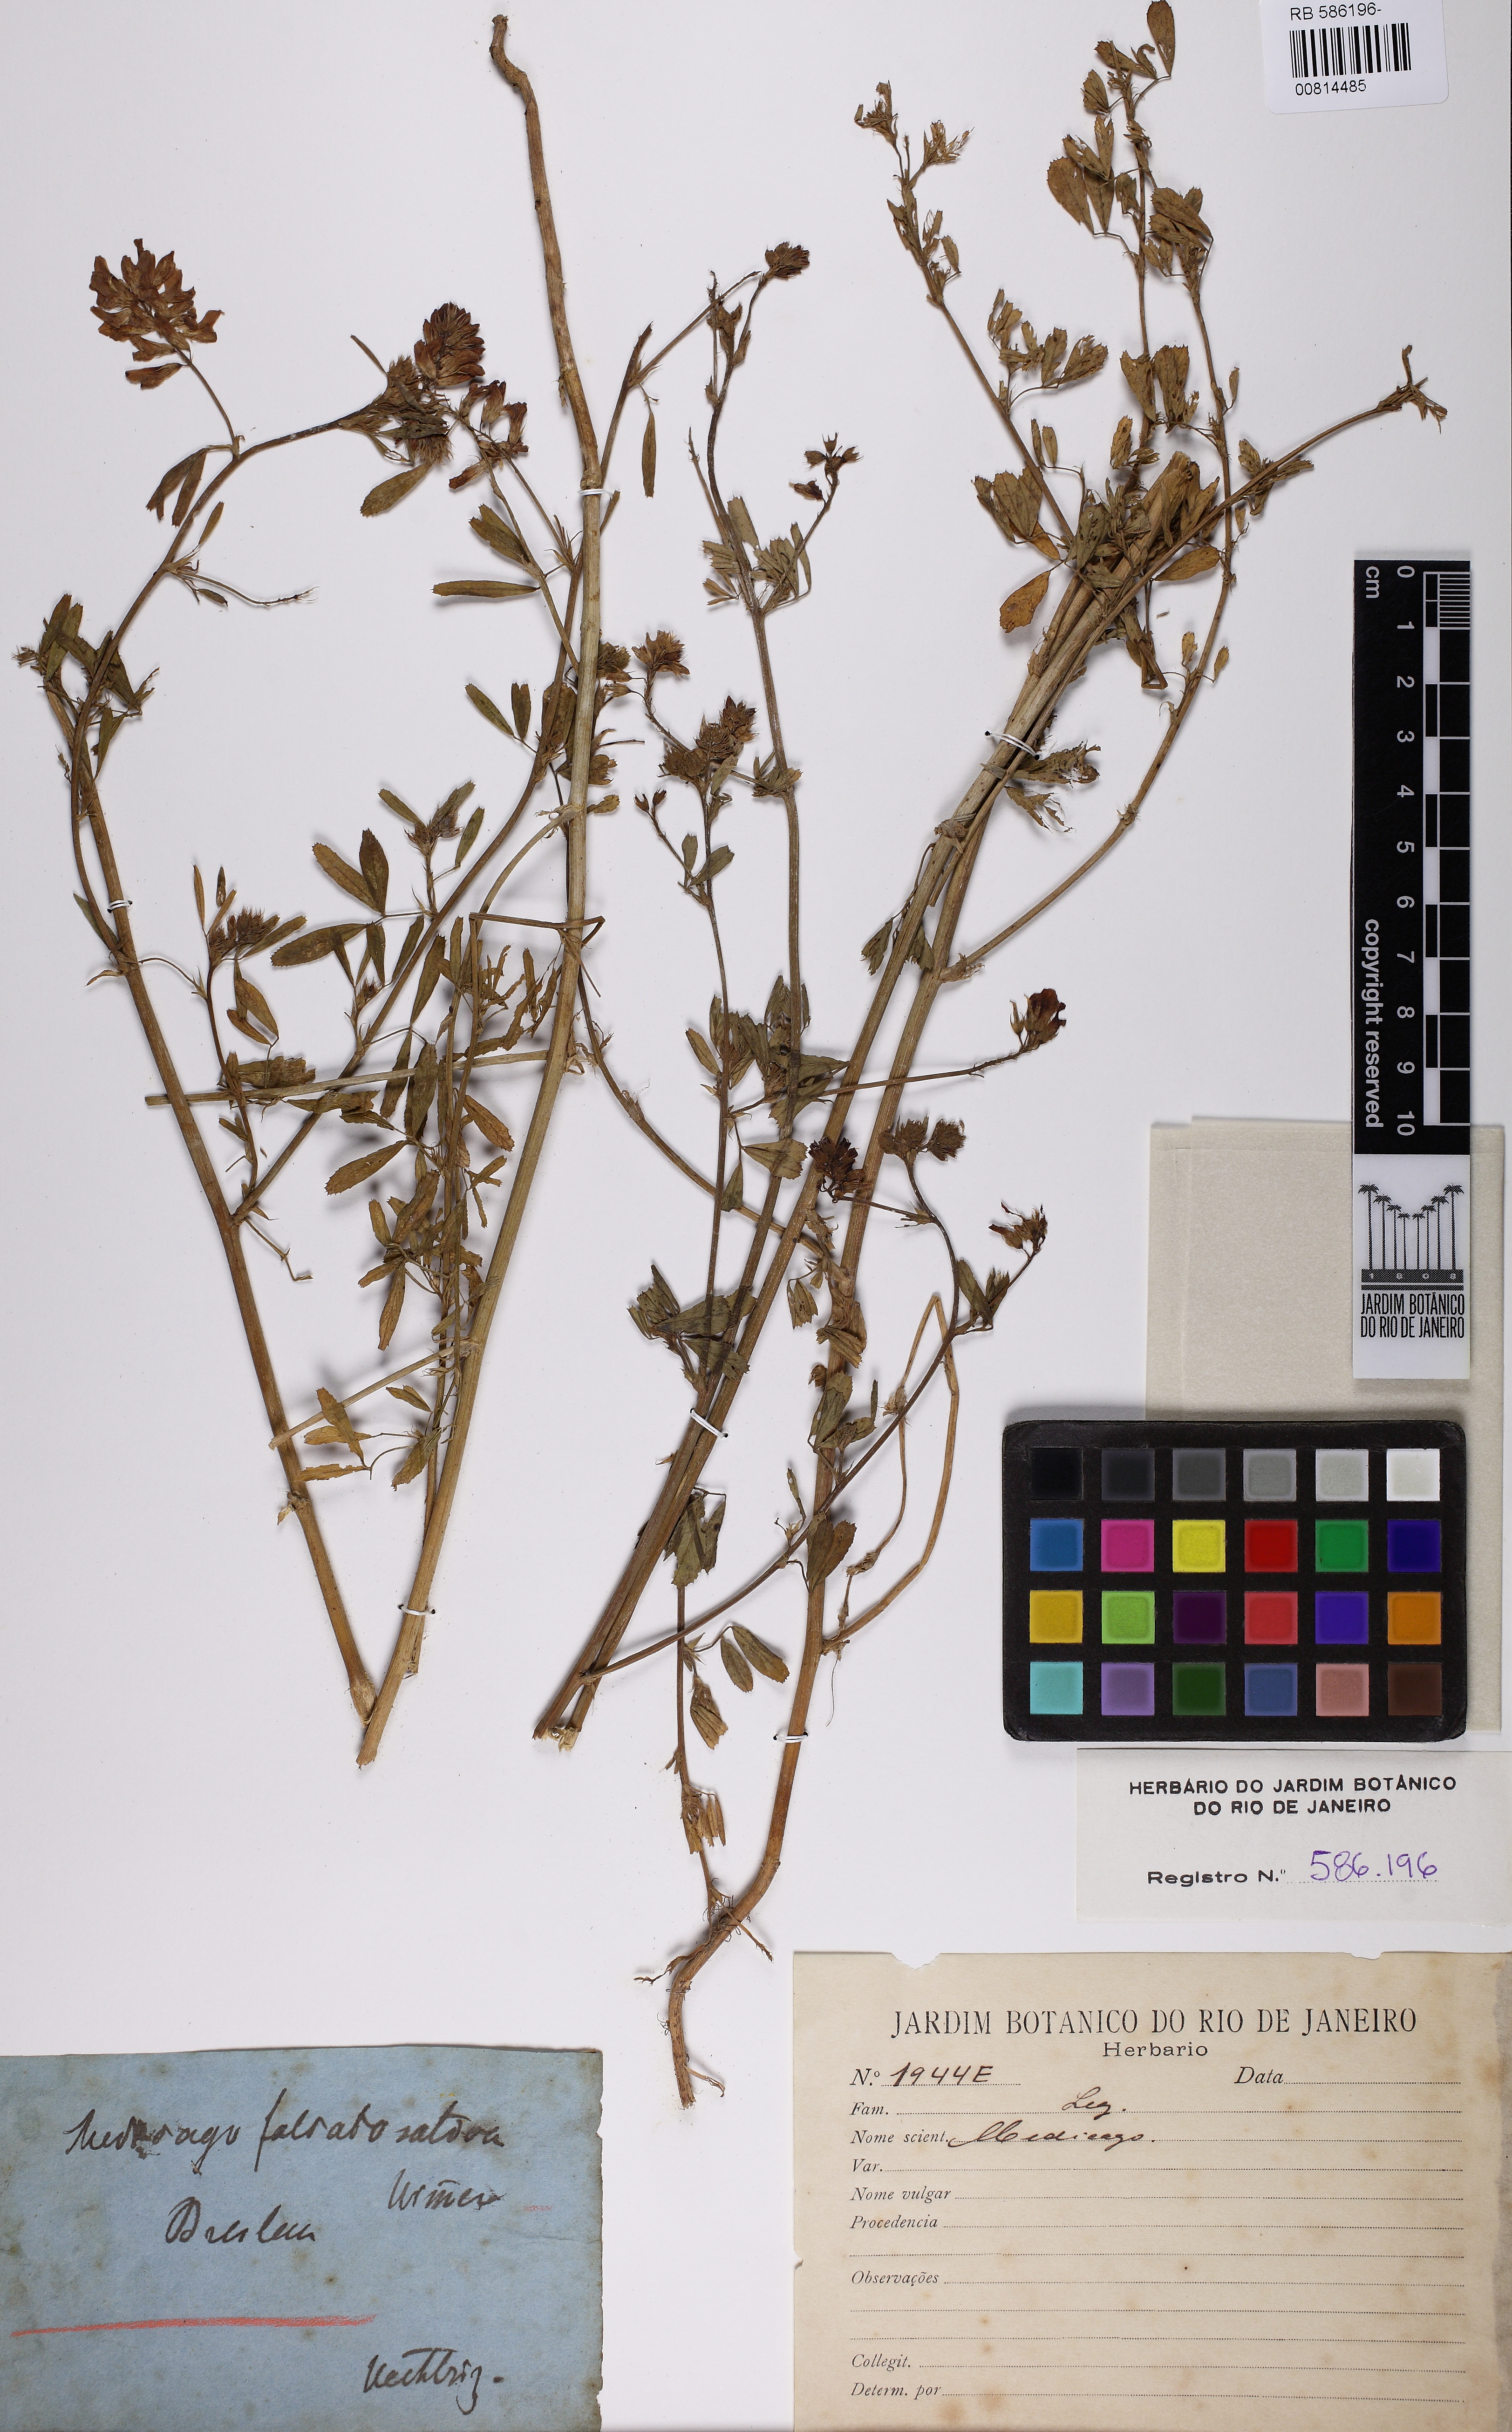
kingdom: Plantae
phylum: Tracheophyta
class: Magnoliopsida
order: Fabales
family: Fabaceae
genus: Medicago
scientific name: Medicago
